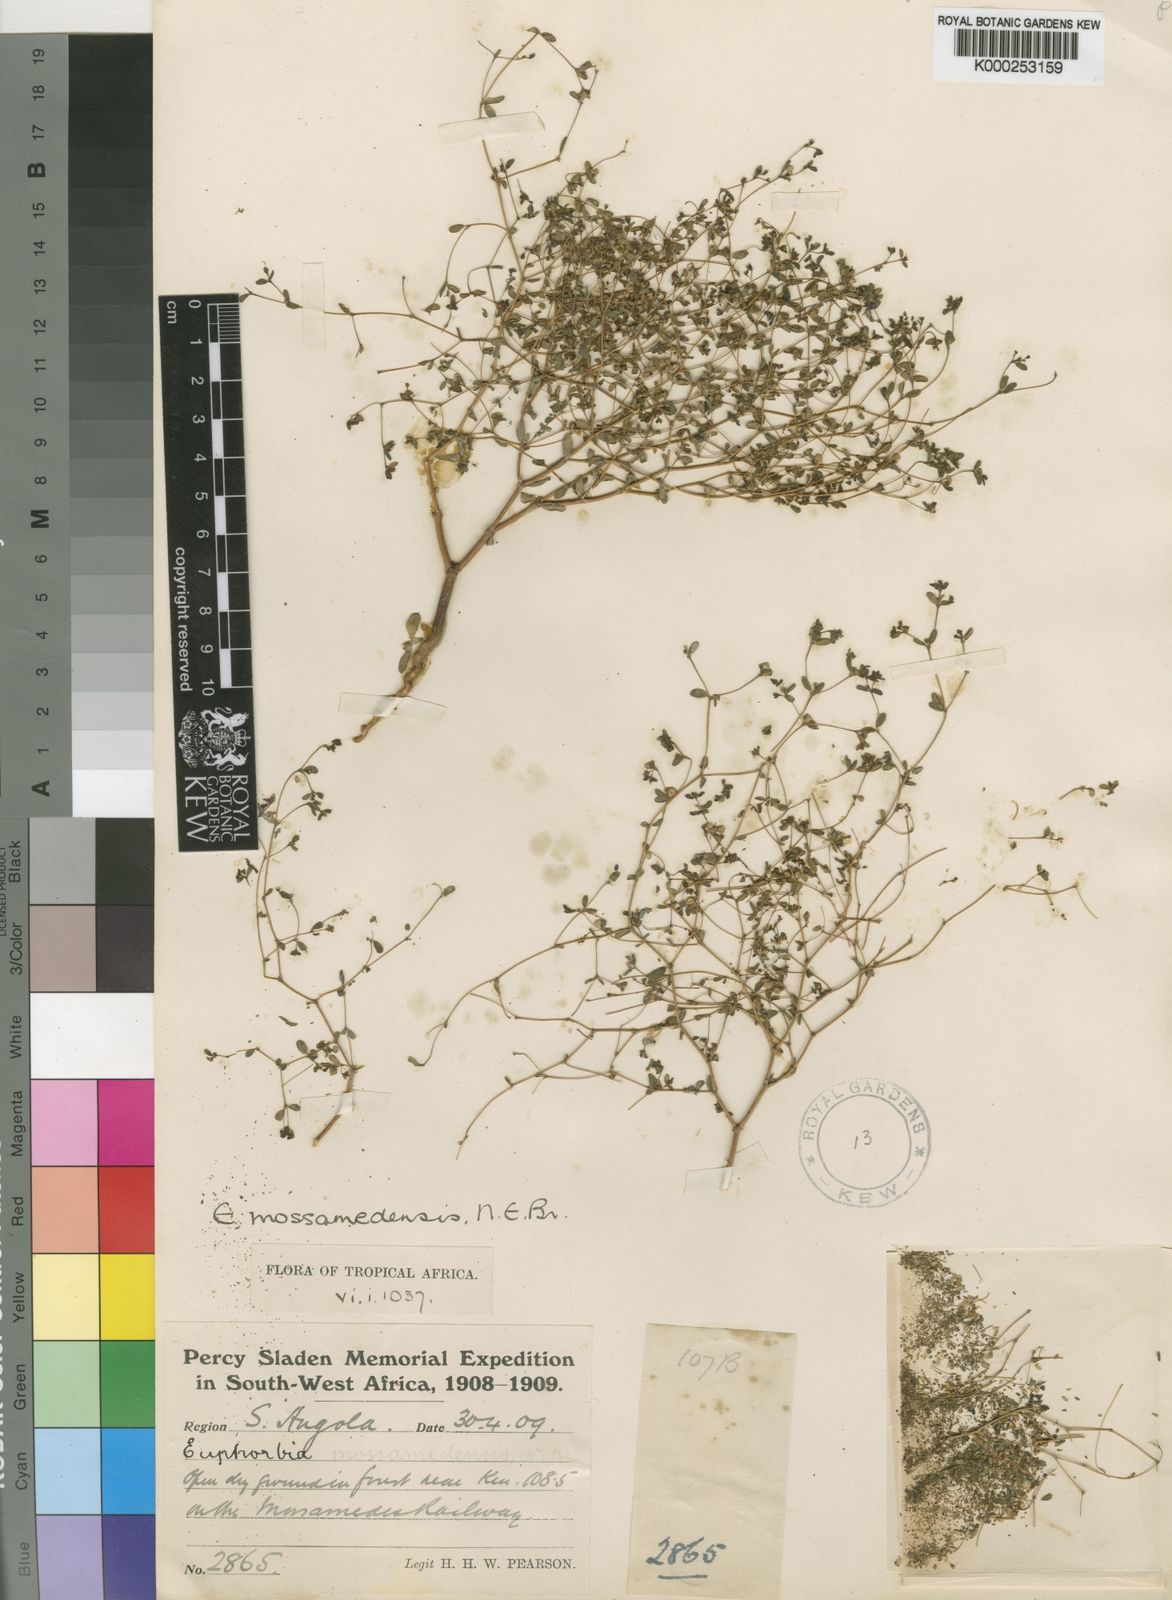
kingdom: Plantae
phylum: Tracheophyta
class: Magnoliopsida
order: Malpighiales
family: Euphorbiaceae
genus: Euphorbia
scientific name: Euphorbia mossamedensis
